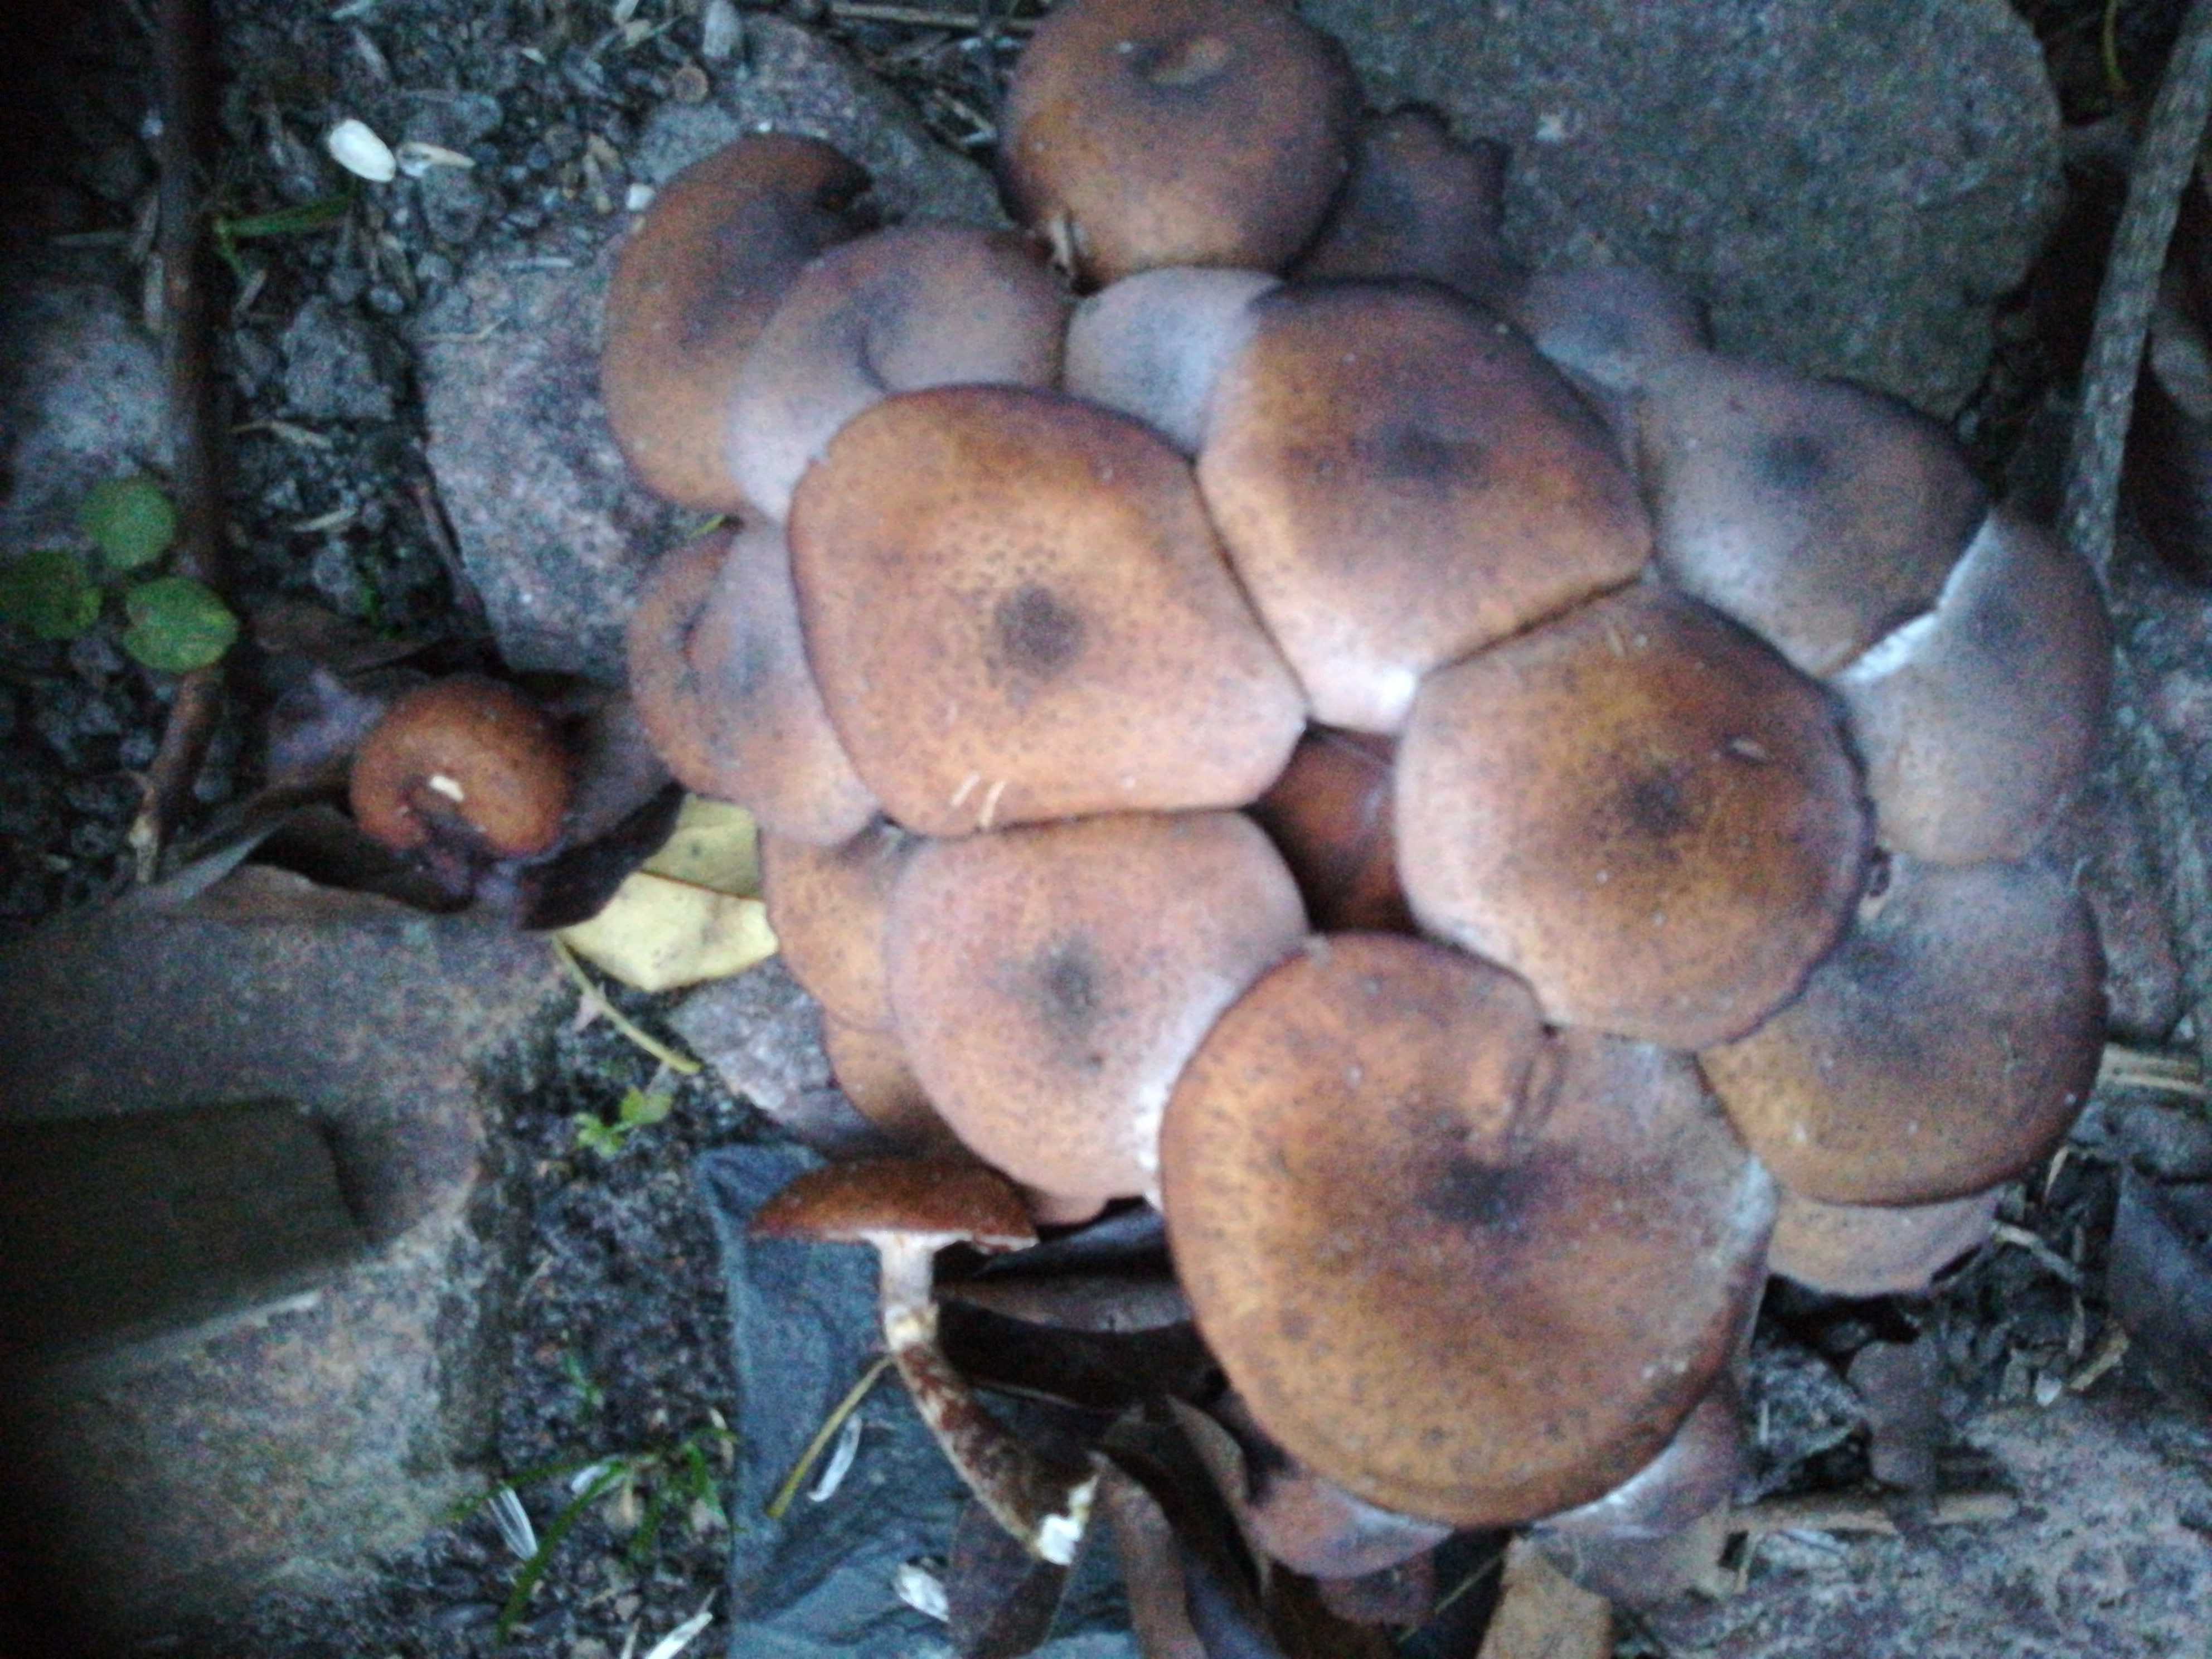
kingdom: Fungi
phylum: Basidiomycota
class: Agaricomycetes
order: Agaricales
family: Physalacriaceae
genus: Armillaria
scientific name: Armillaria
